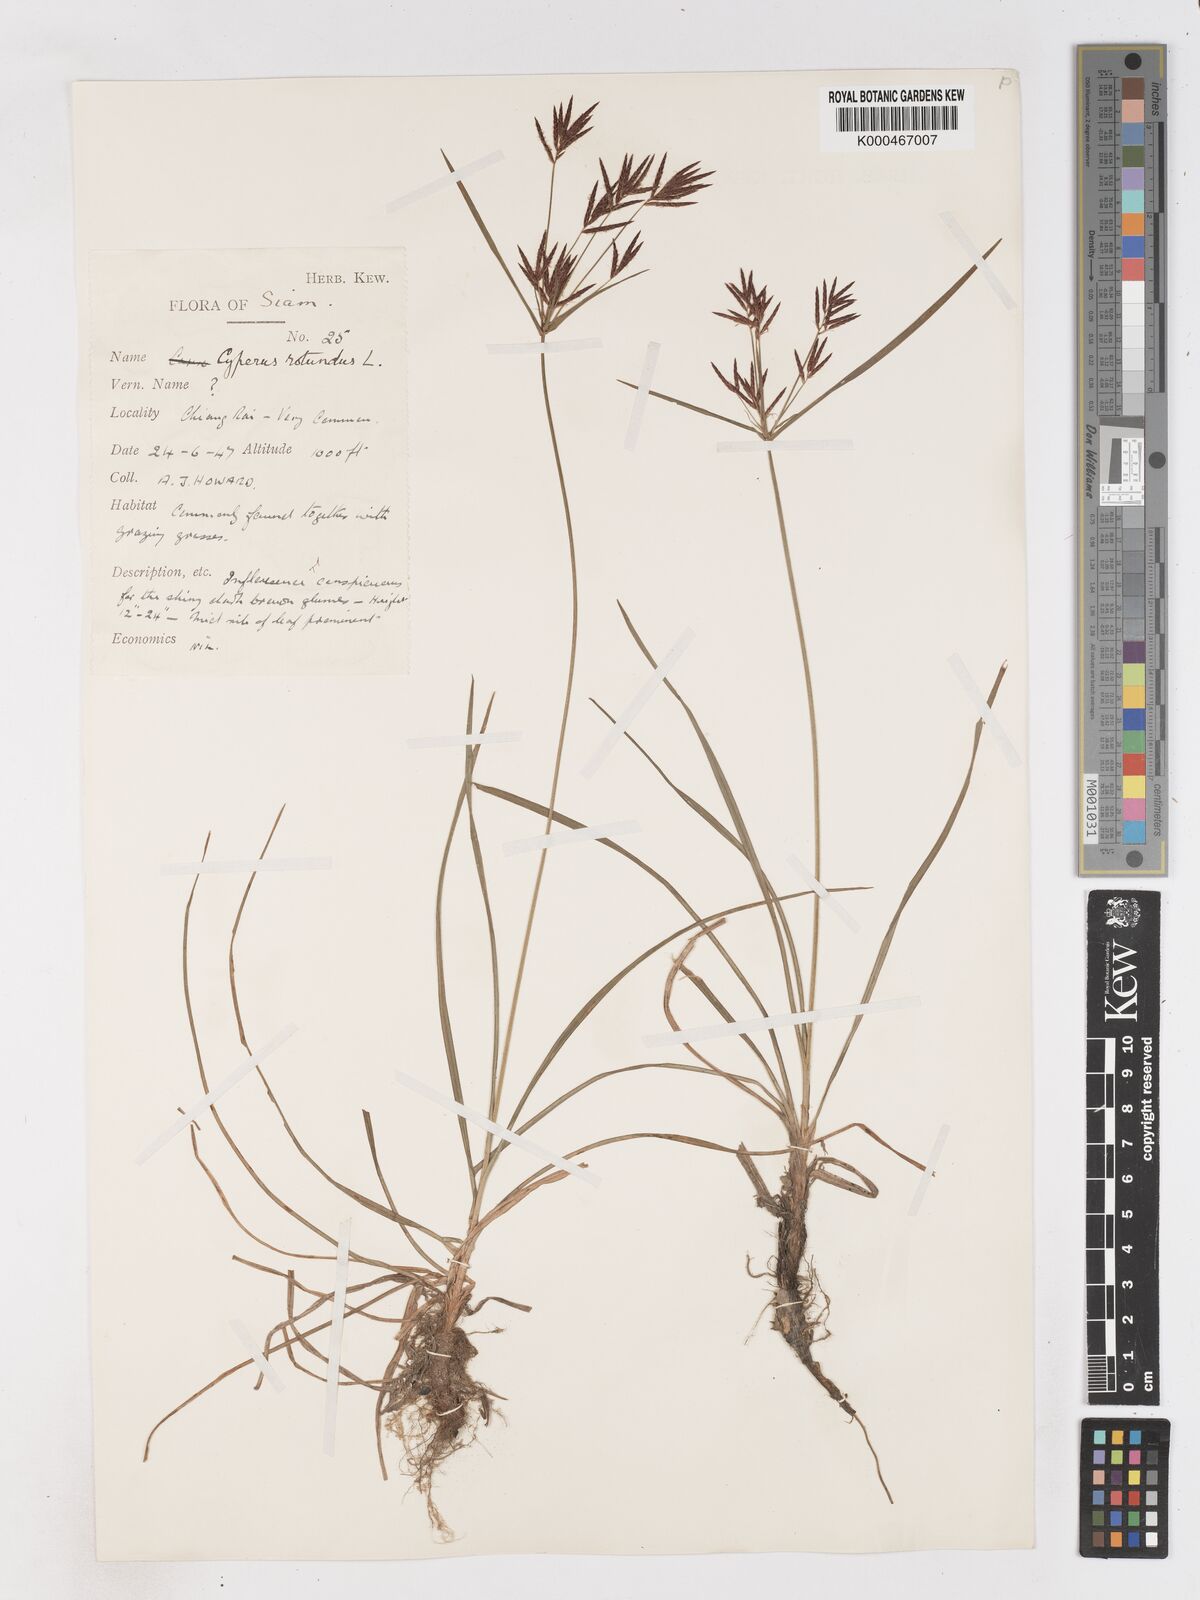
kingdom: Plantae
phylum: Tracheophyta
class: Liliopsida
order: Poales
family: Cyperaceae
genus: Cyperus
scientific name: Cyperus rotundus
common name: Nutgrass
